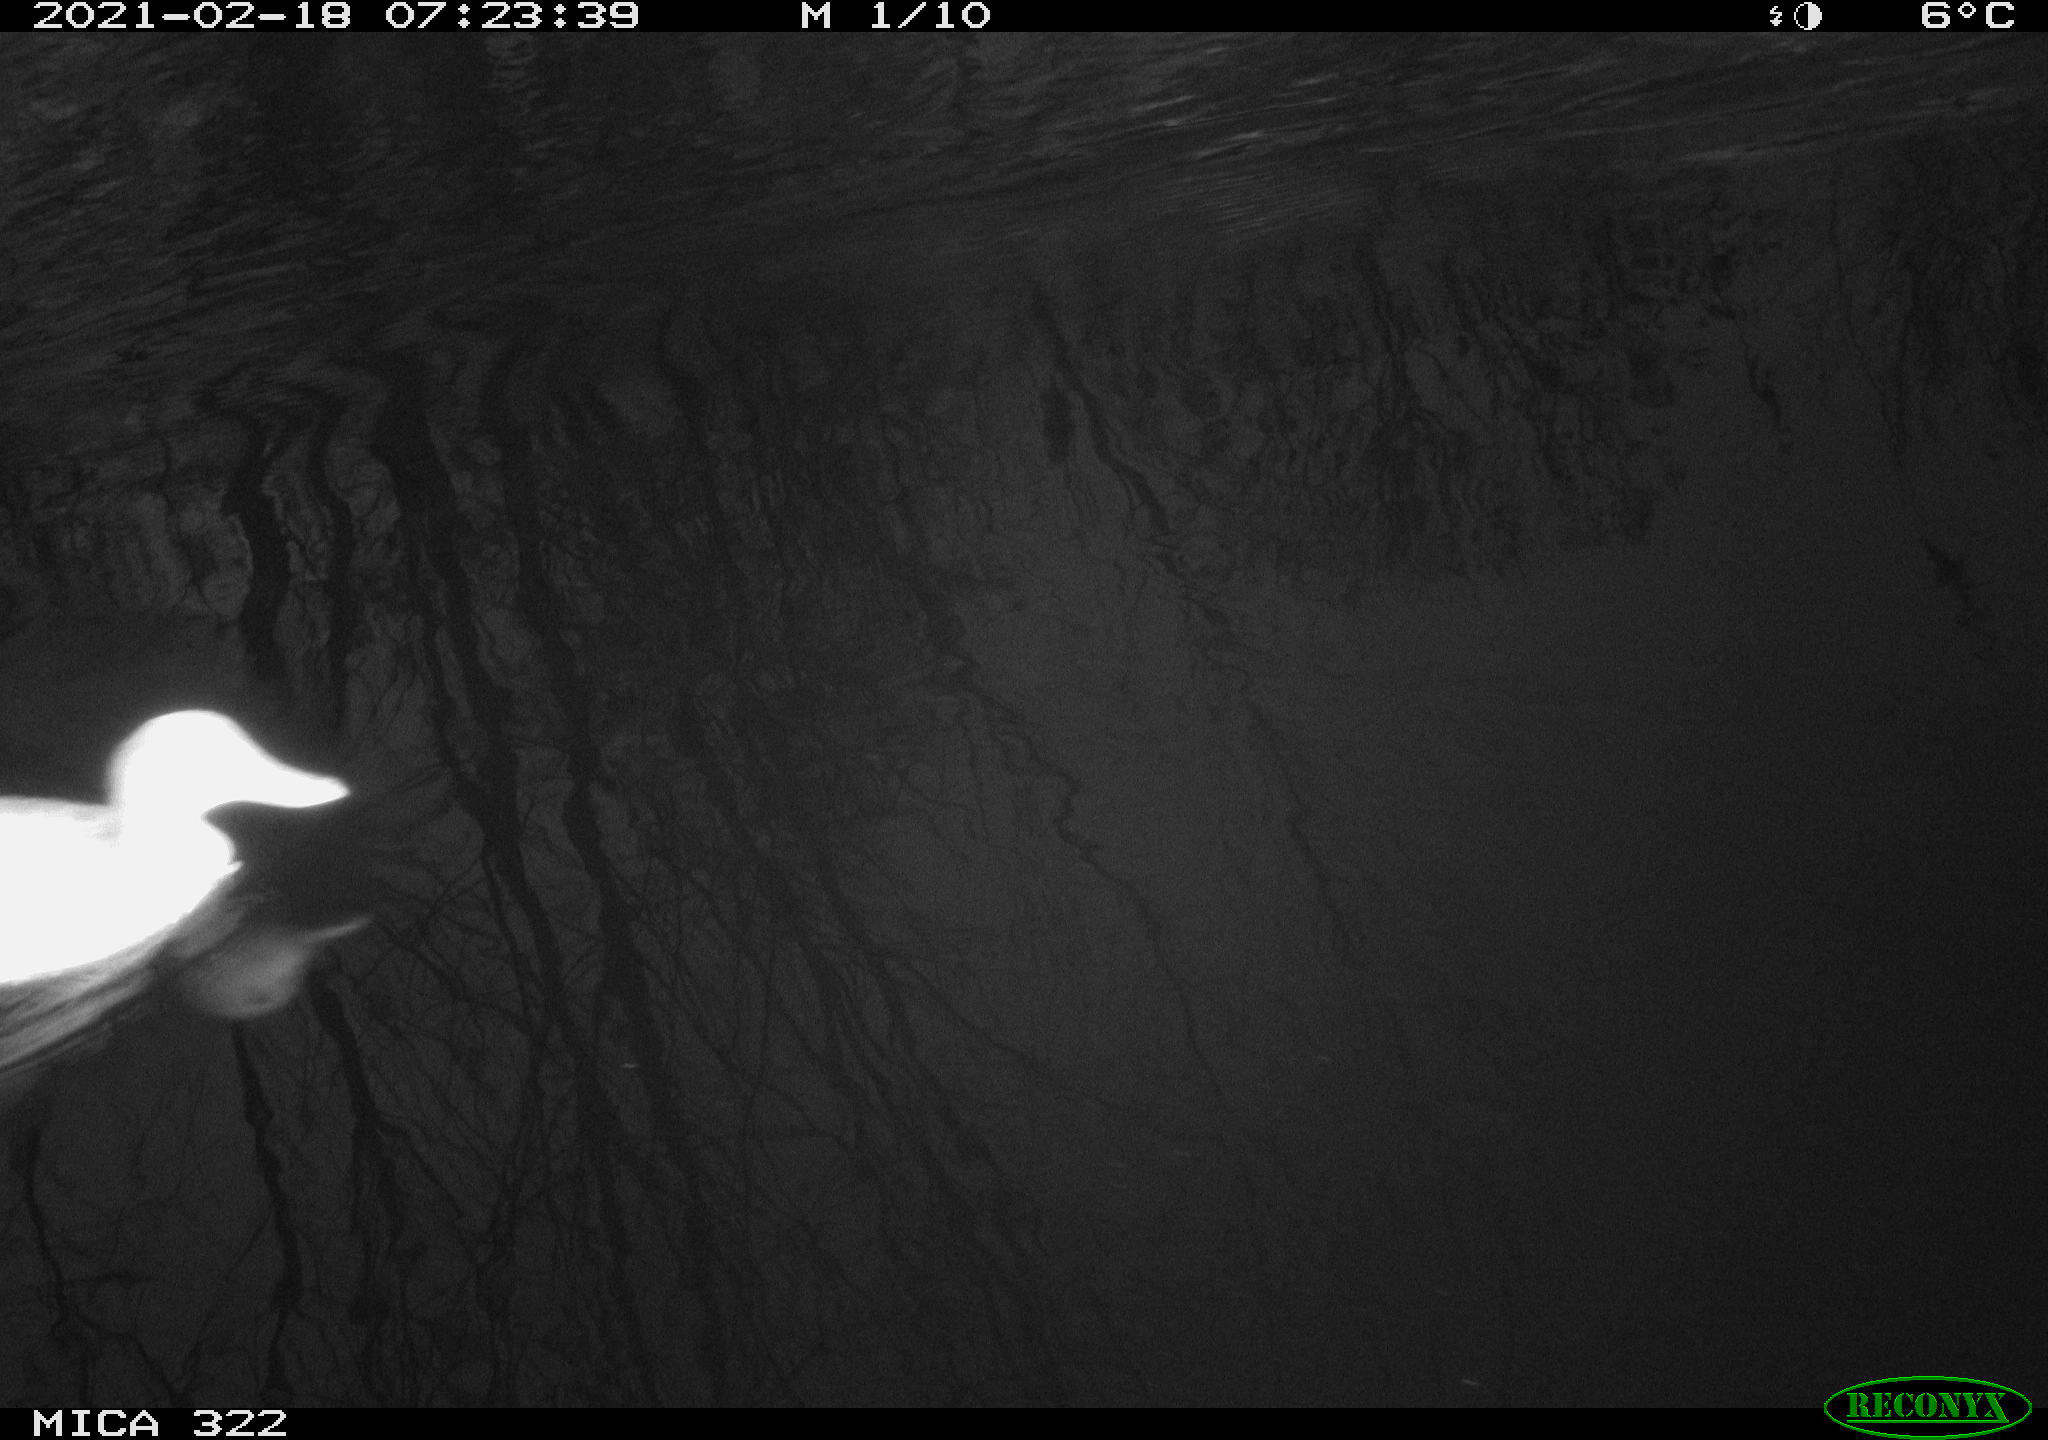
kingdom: Animalia
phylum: Chordata
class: Aves
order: Anseriformes
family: Anatidae
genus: Anas
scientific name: Anas platyrhynchos
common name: Mallard
